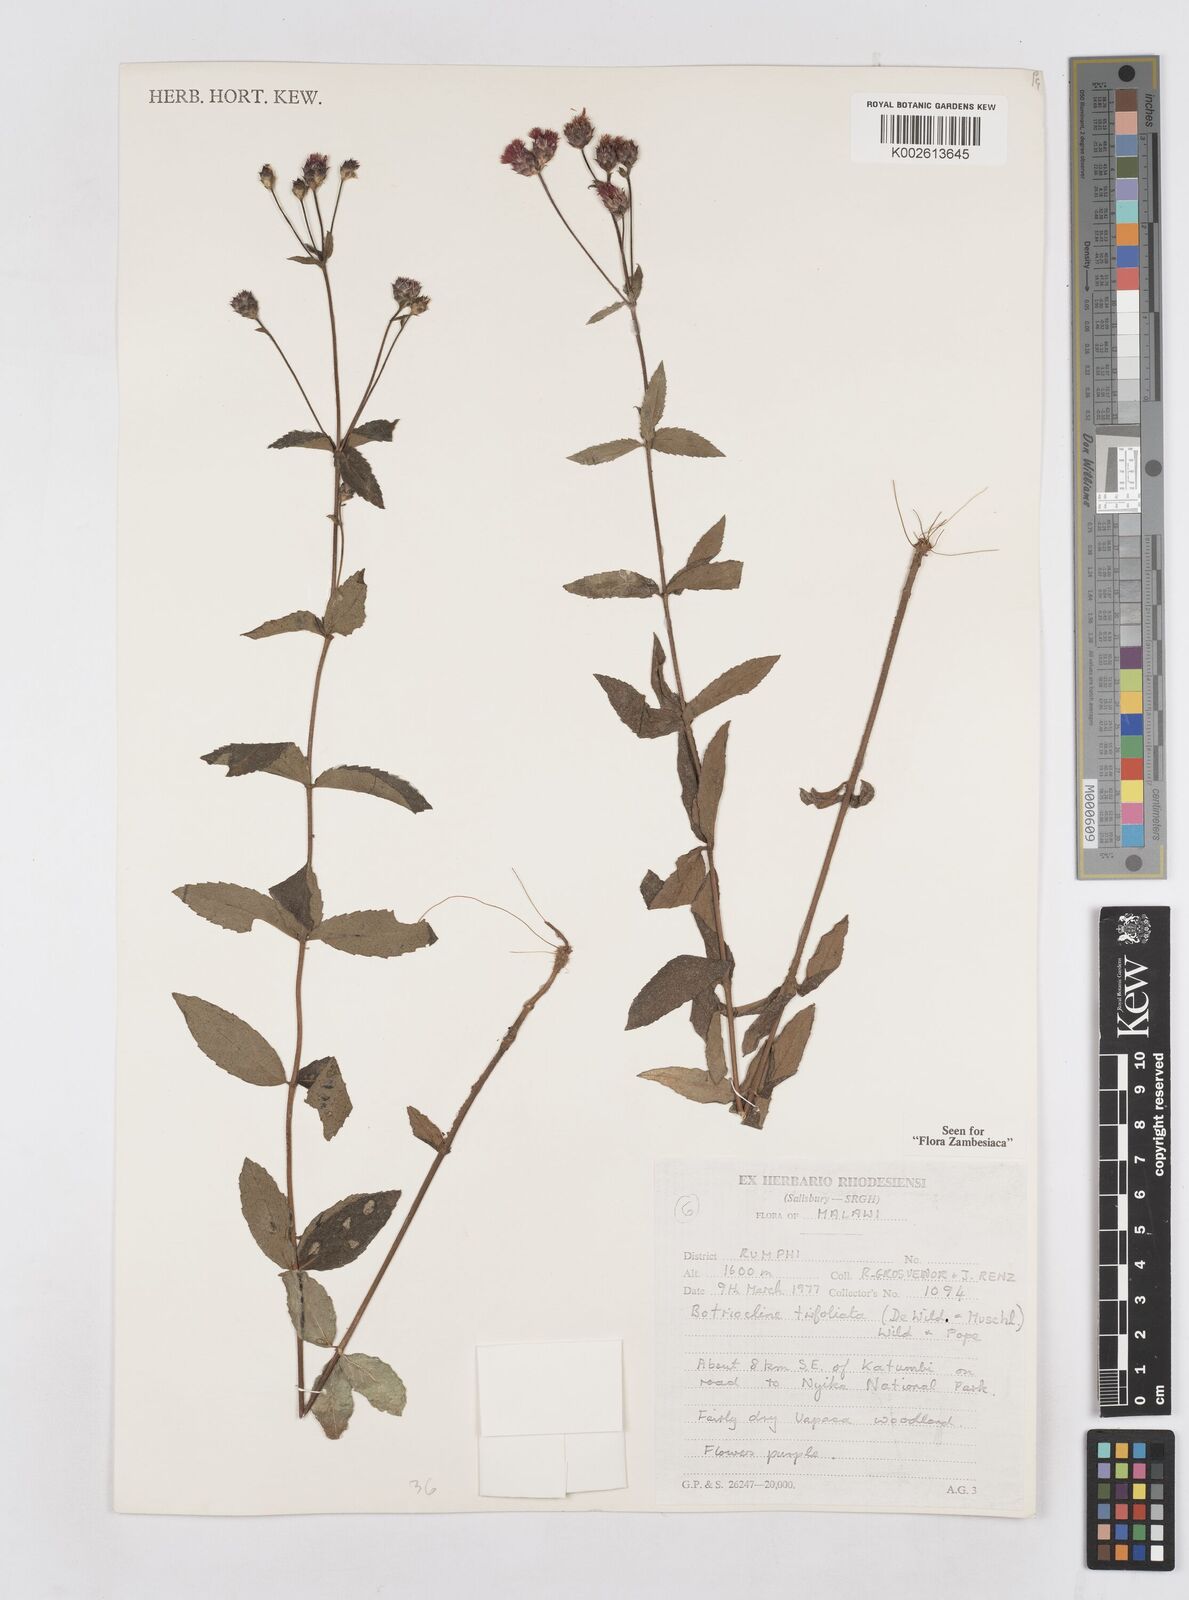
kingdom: Plantae
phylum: Tracheophyta
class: Magnoliopsida
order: Asterales
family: Asteraceae
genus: Bothriocline
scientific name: Bothriocline trifoliata
